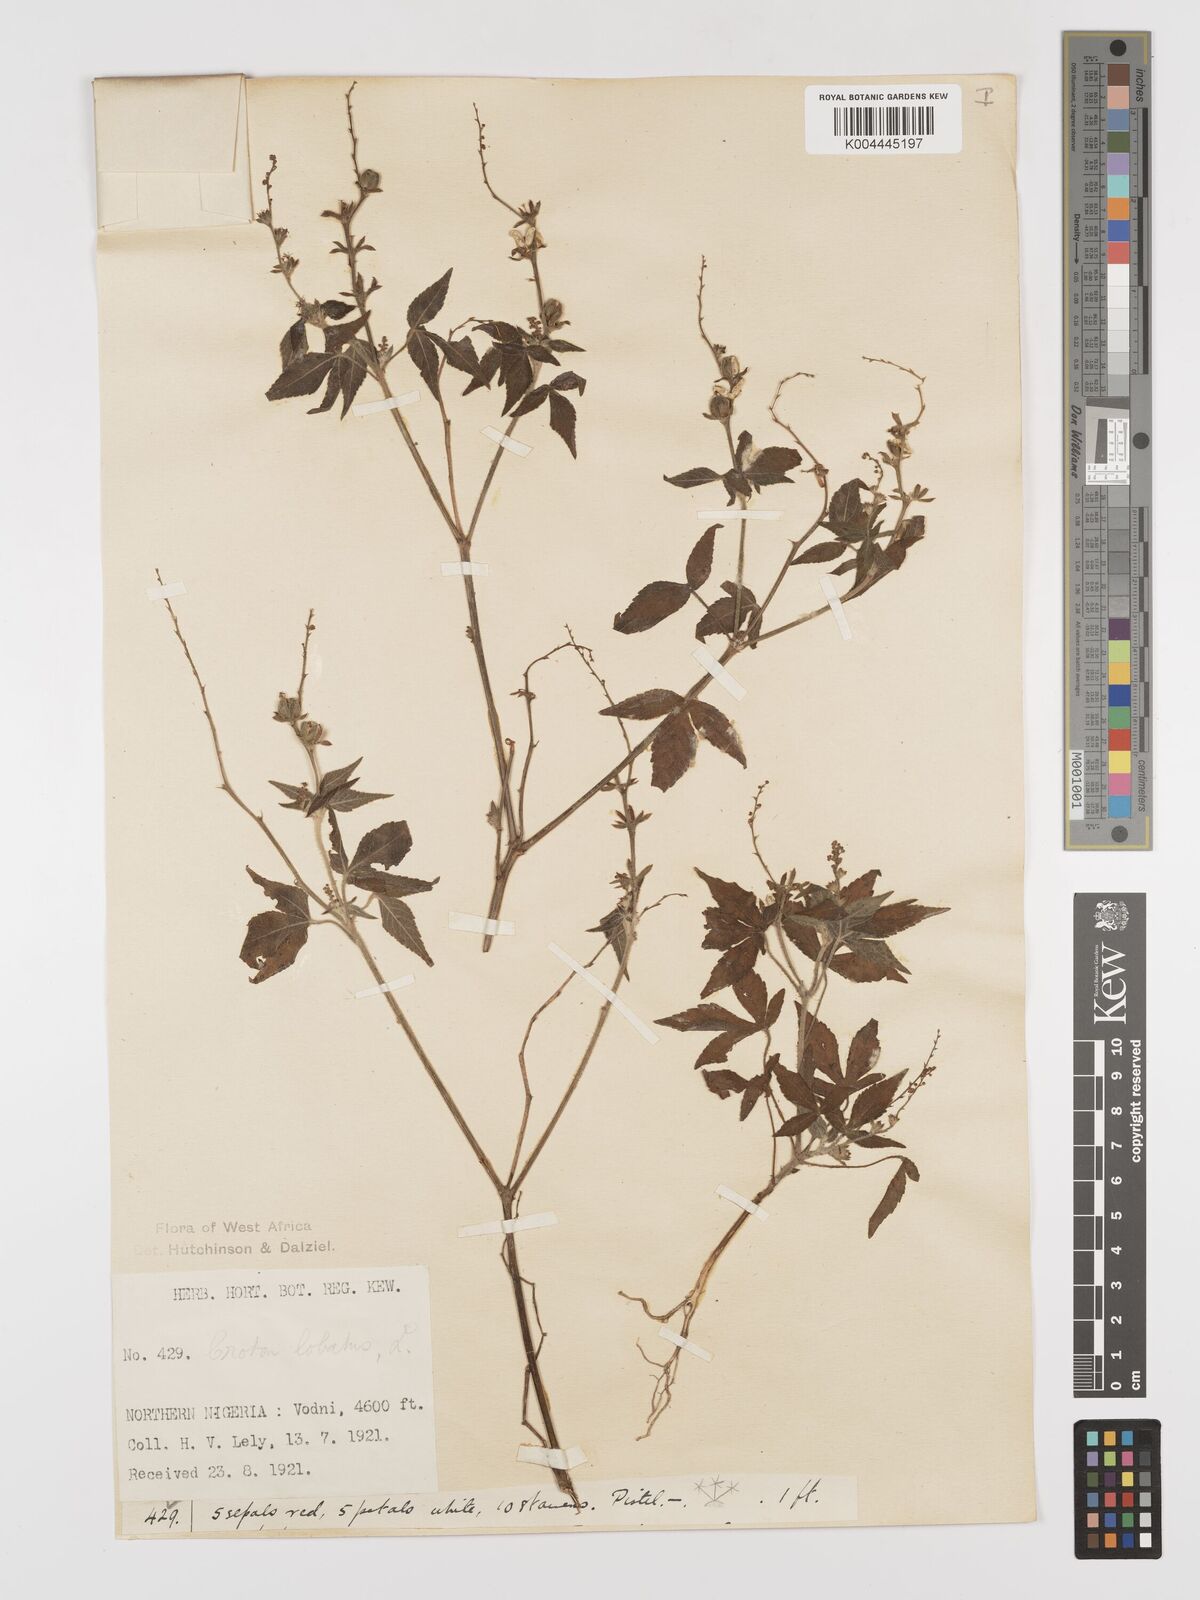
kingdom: Plantae
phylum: Tracheophyta
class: Magnoliopsida
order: Malpighiales
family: Euphorbiaceae
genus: Astraea
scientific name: Astraea lobata
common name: Lobed croton
